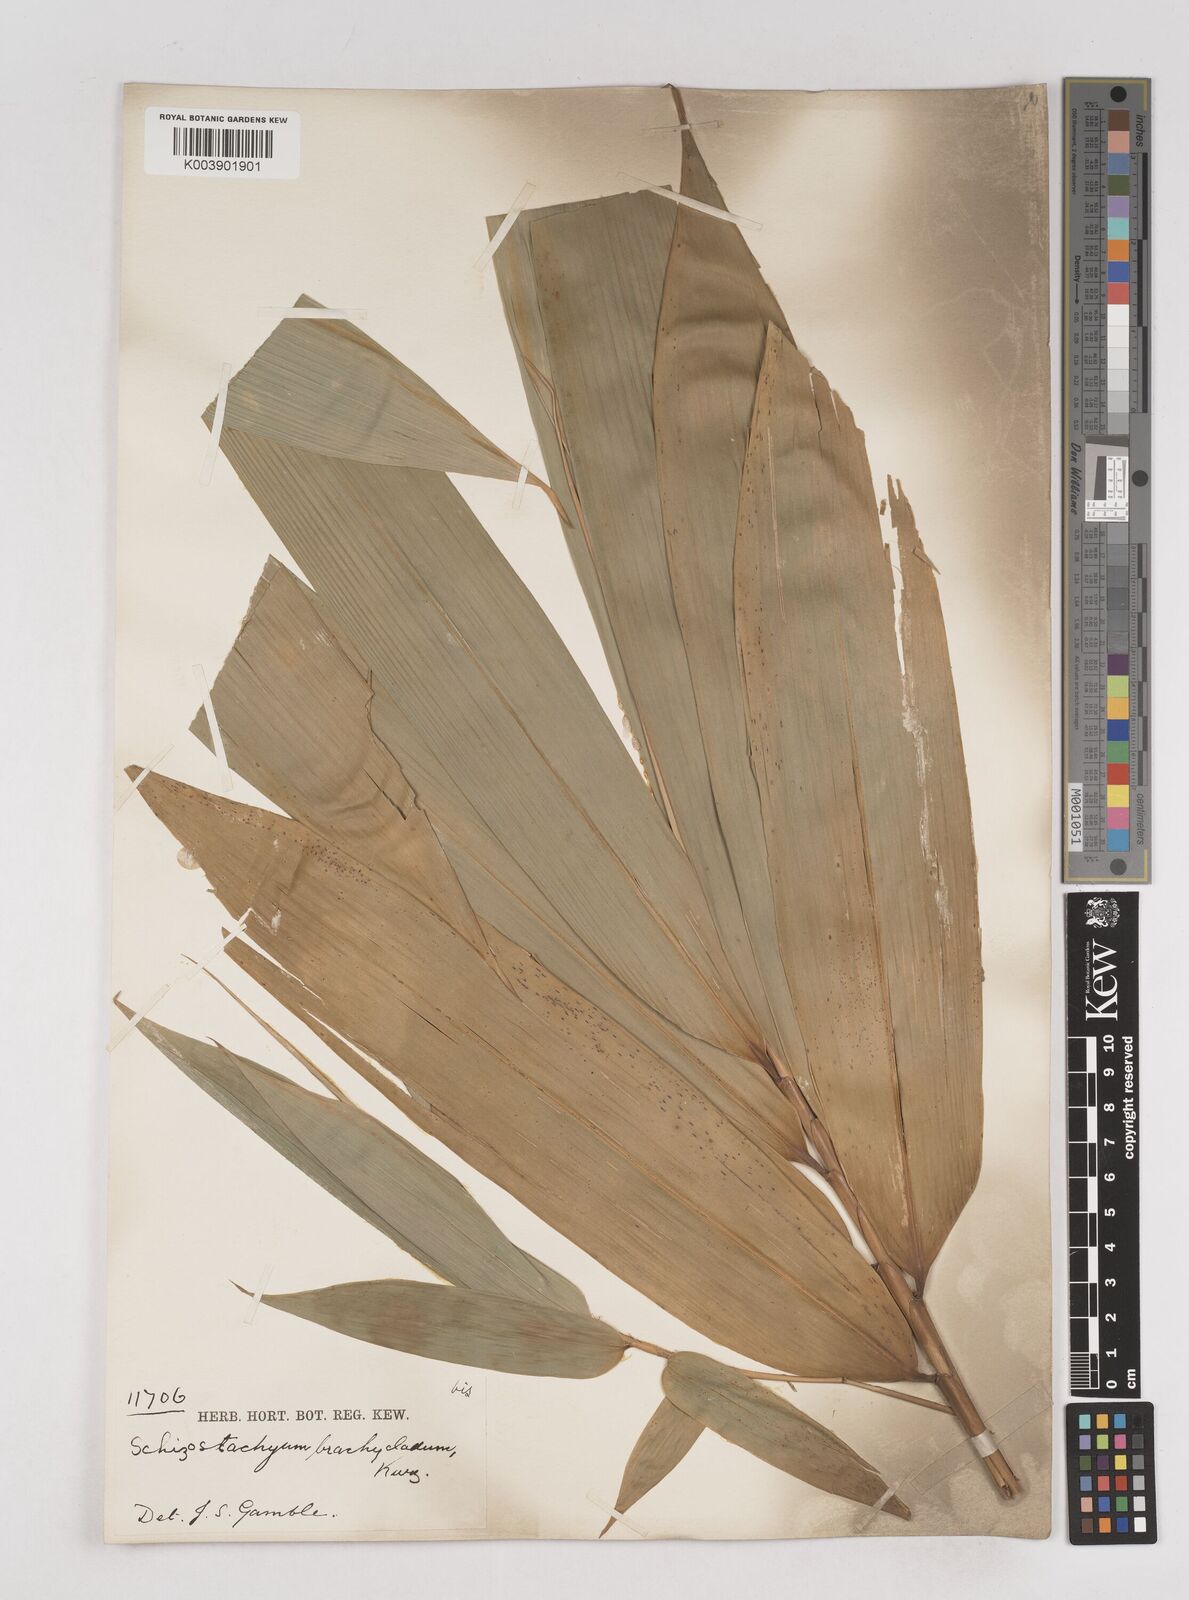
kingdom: Plantae
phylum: Tracheophyta
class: Liliopsida
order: Poales
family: Poaceae
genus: Schizostachyum
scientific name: Schizostachyum brachycladum
